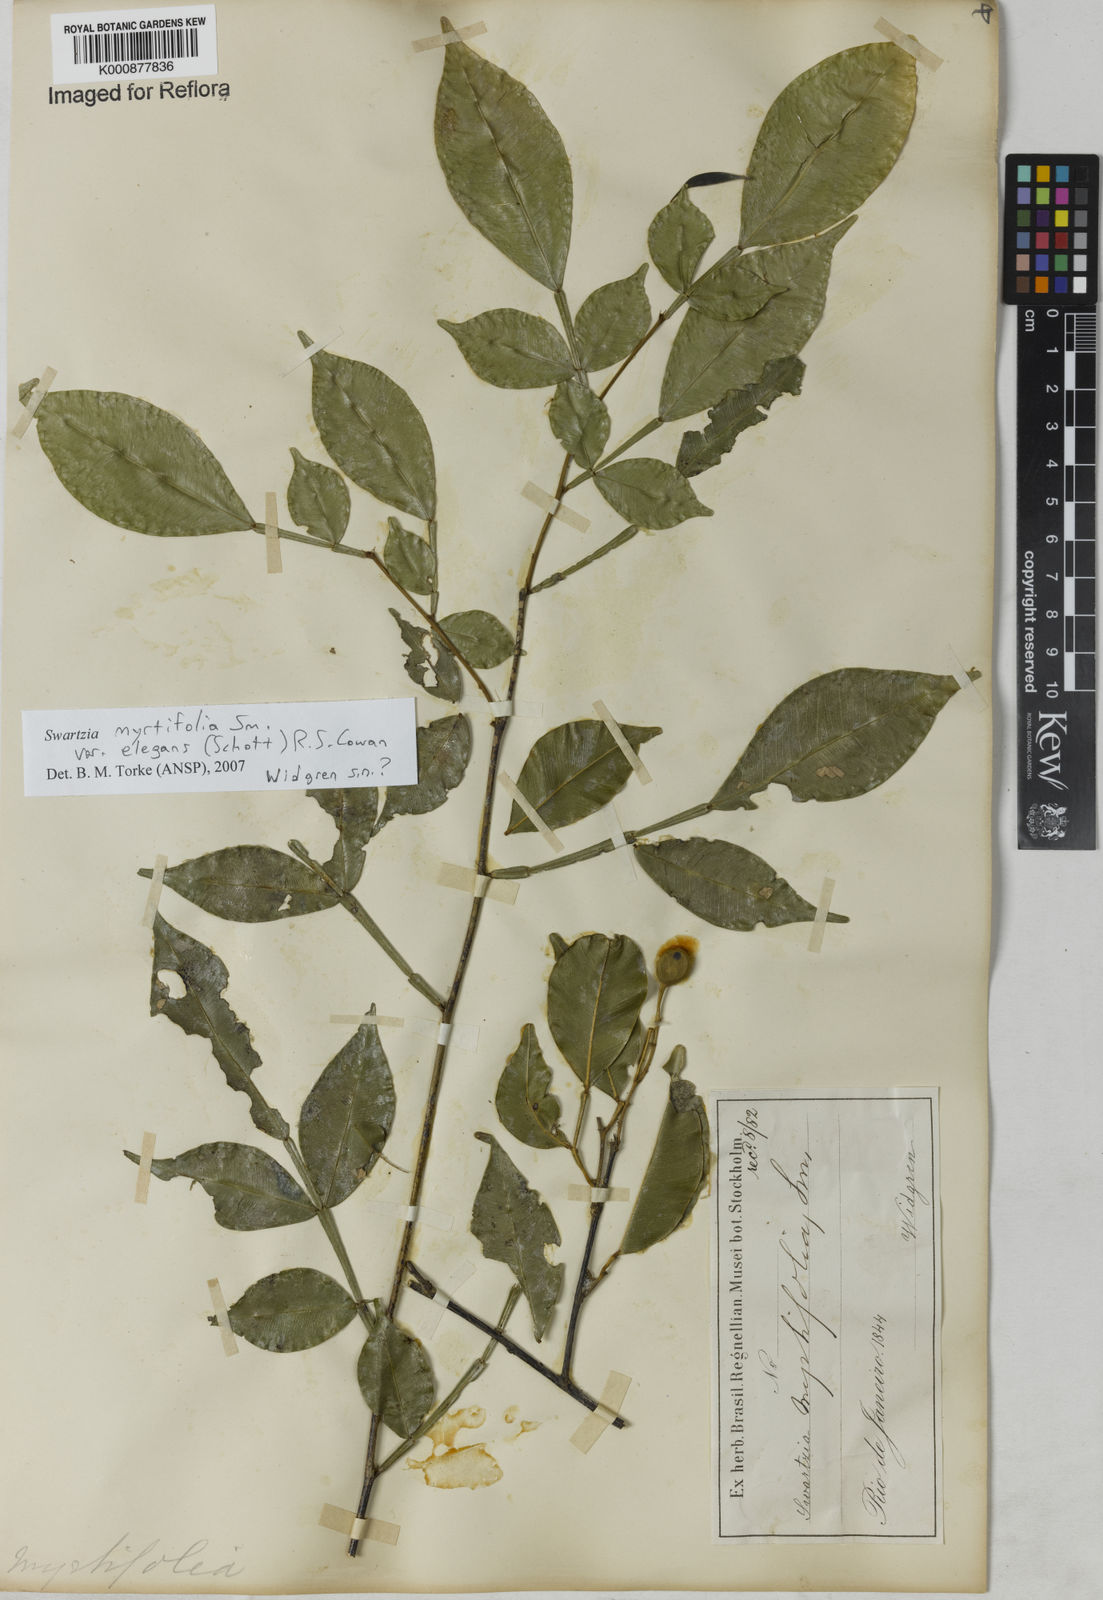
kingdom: Plantae
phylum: Tracheophyta
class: Magnoliopsida
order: Fabales
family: Fabaceae
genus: Swartzia
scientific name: Swartzia myrtifolia
